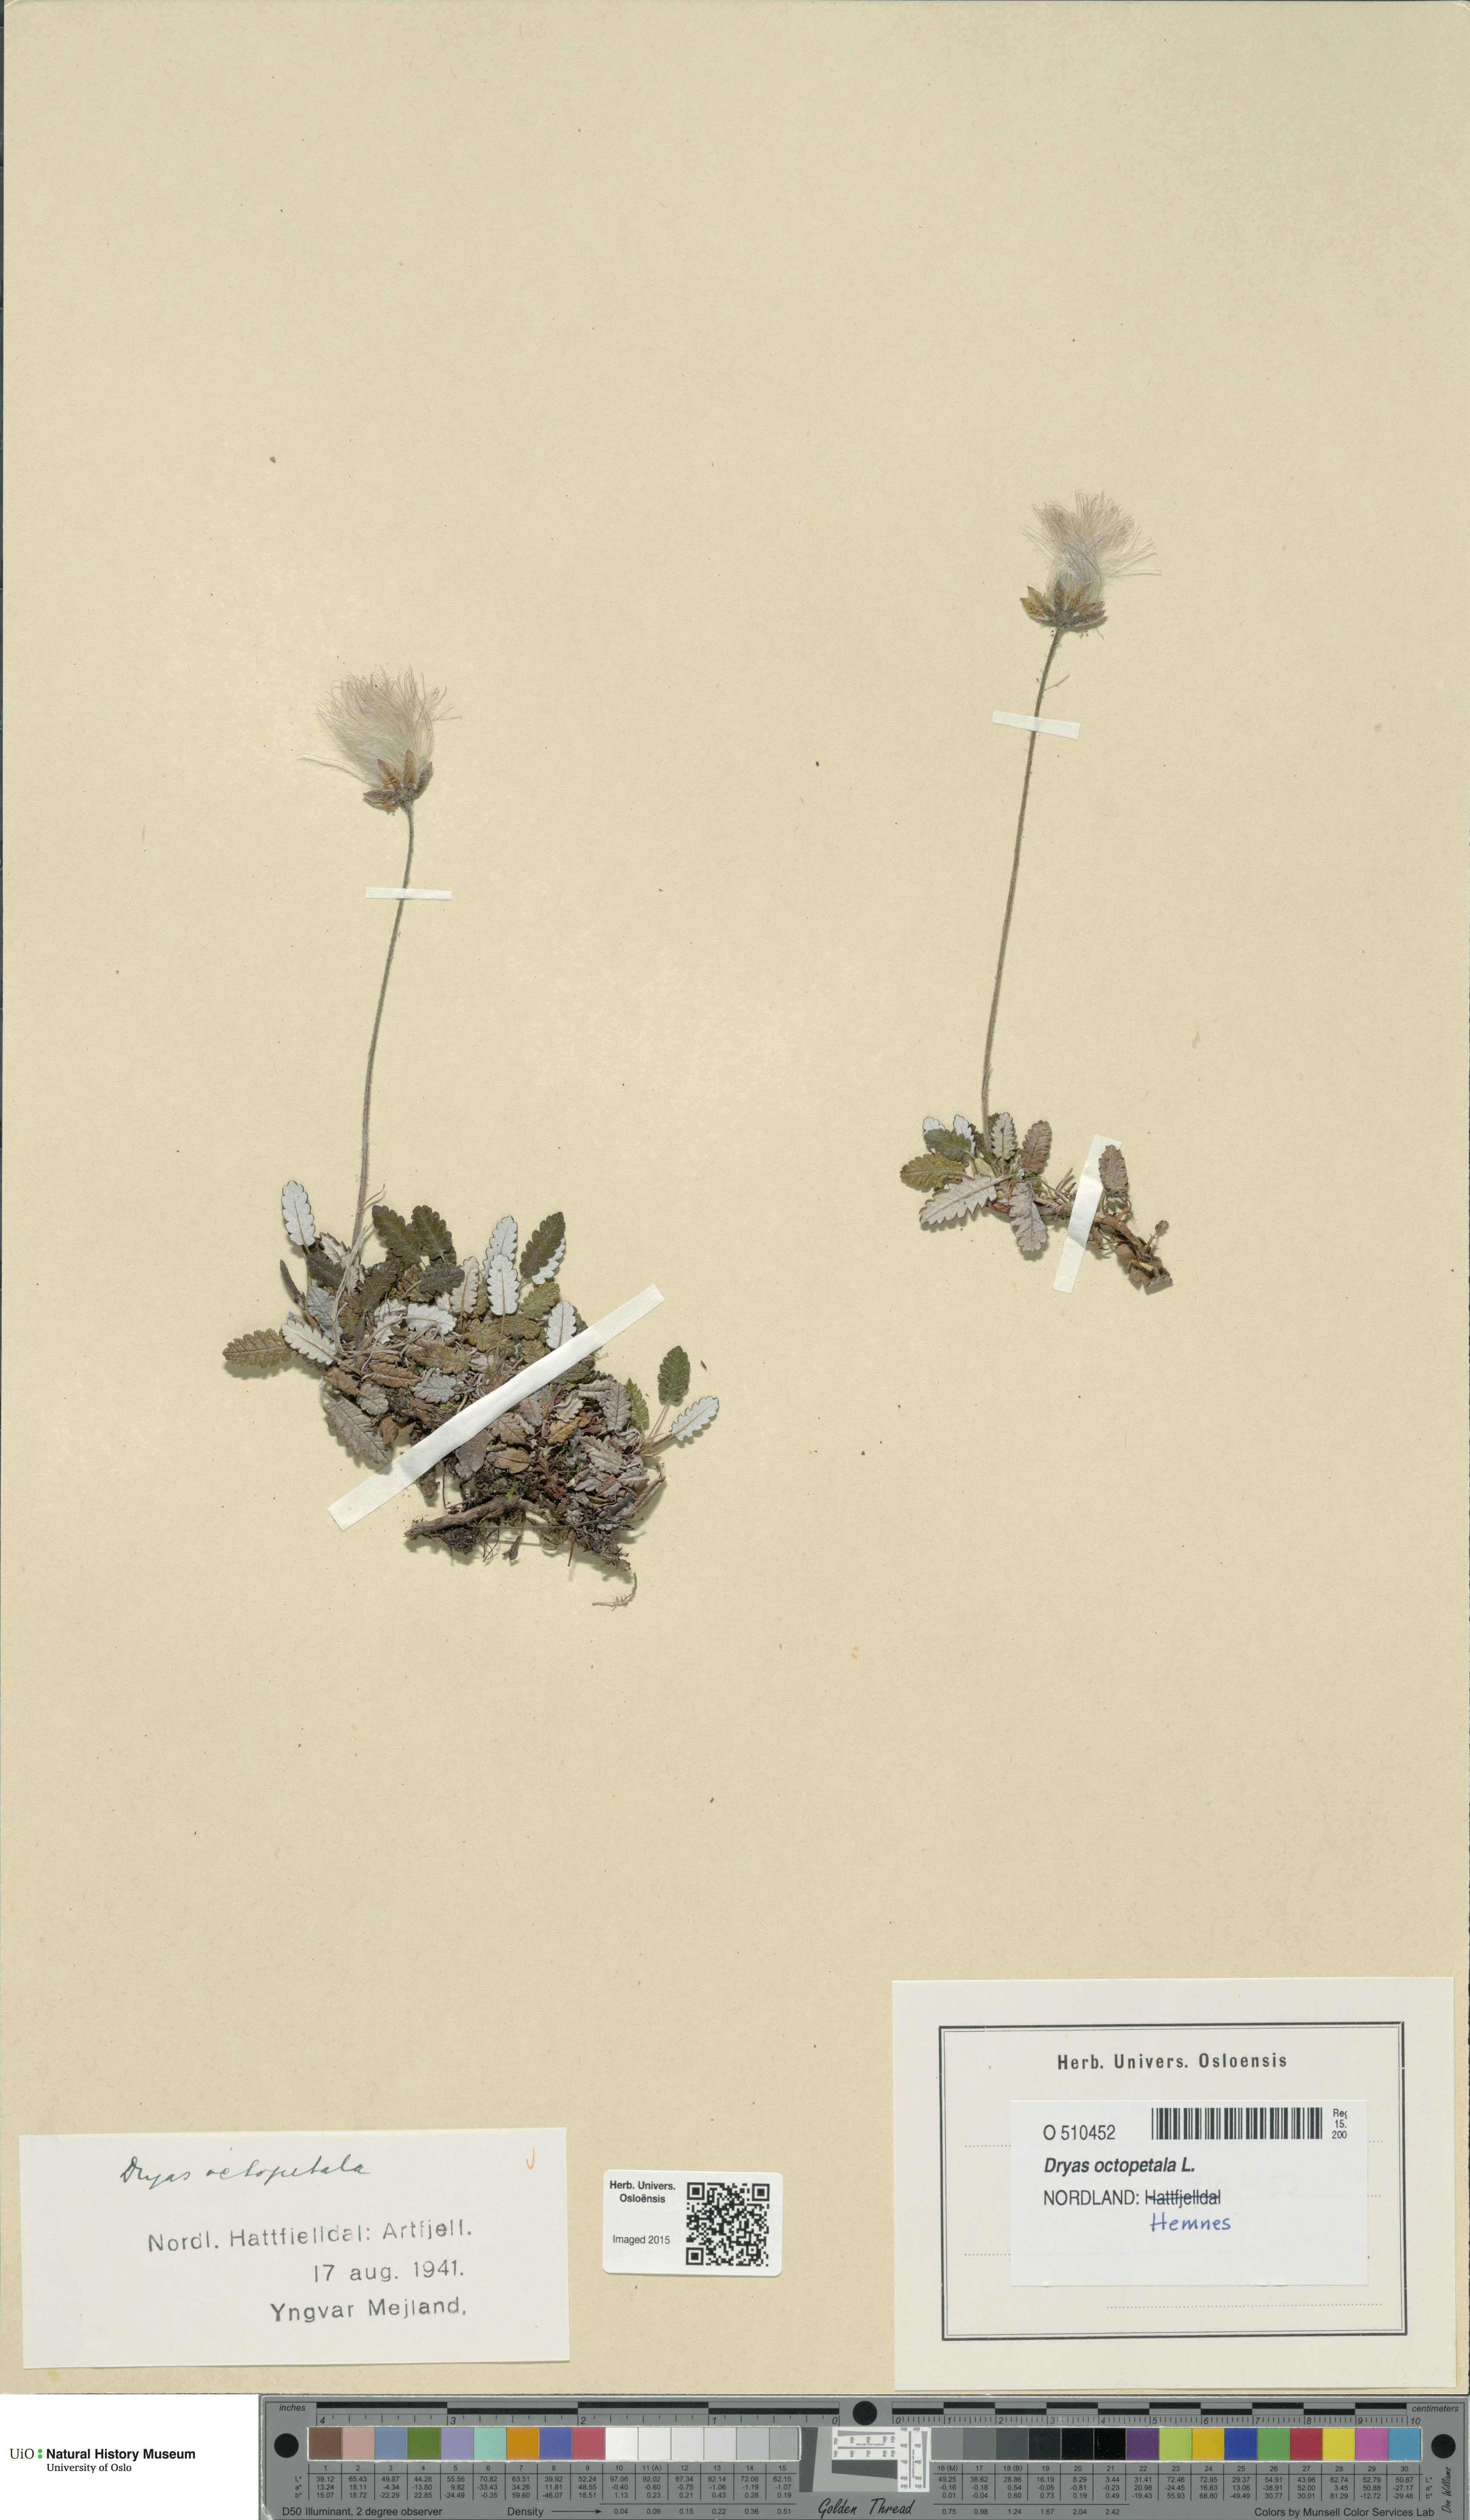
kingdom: Plantae
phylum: Tracheophyta
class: Magnoliopsida
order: Rosales
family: Rosaceae
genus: Dryas
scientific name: Dryas octopetala
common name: Eight-petal mountain-avens
